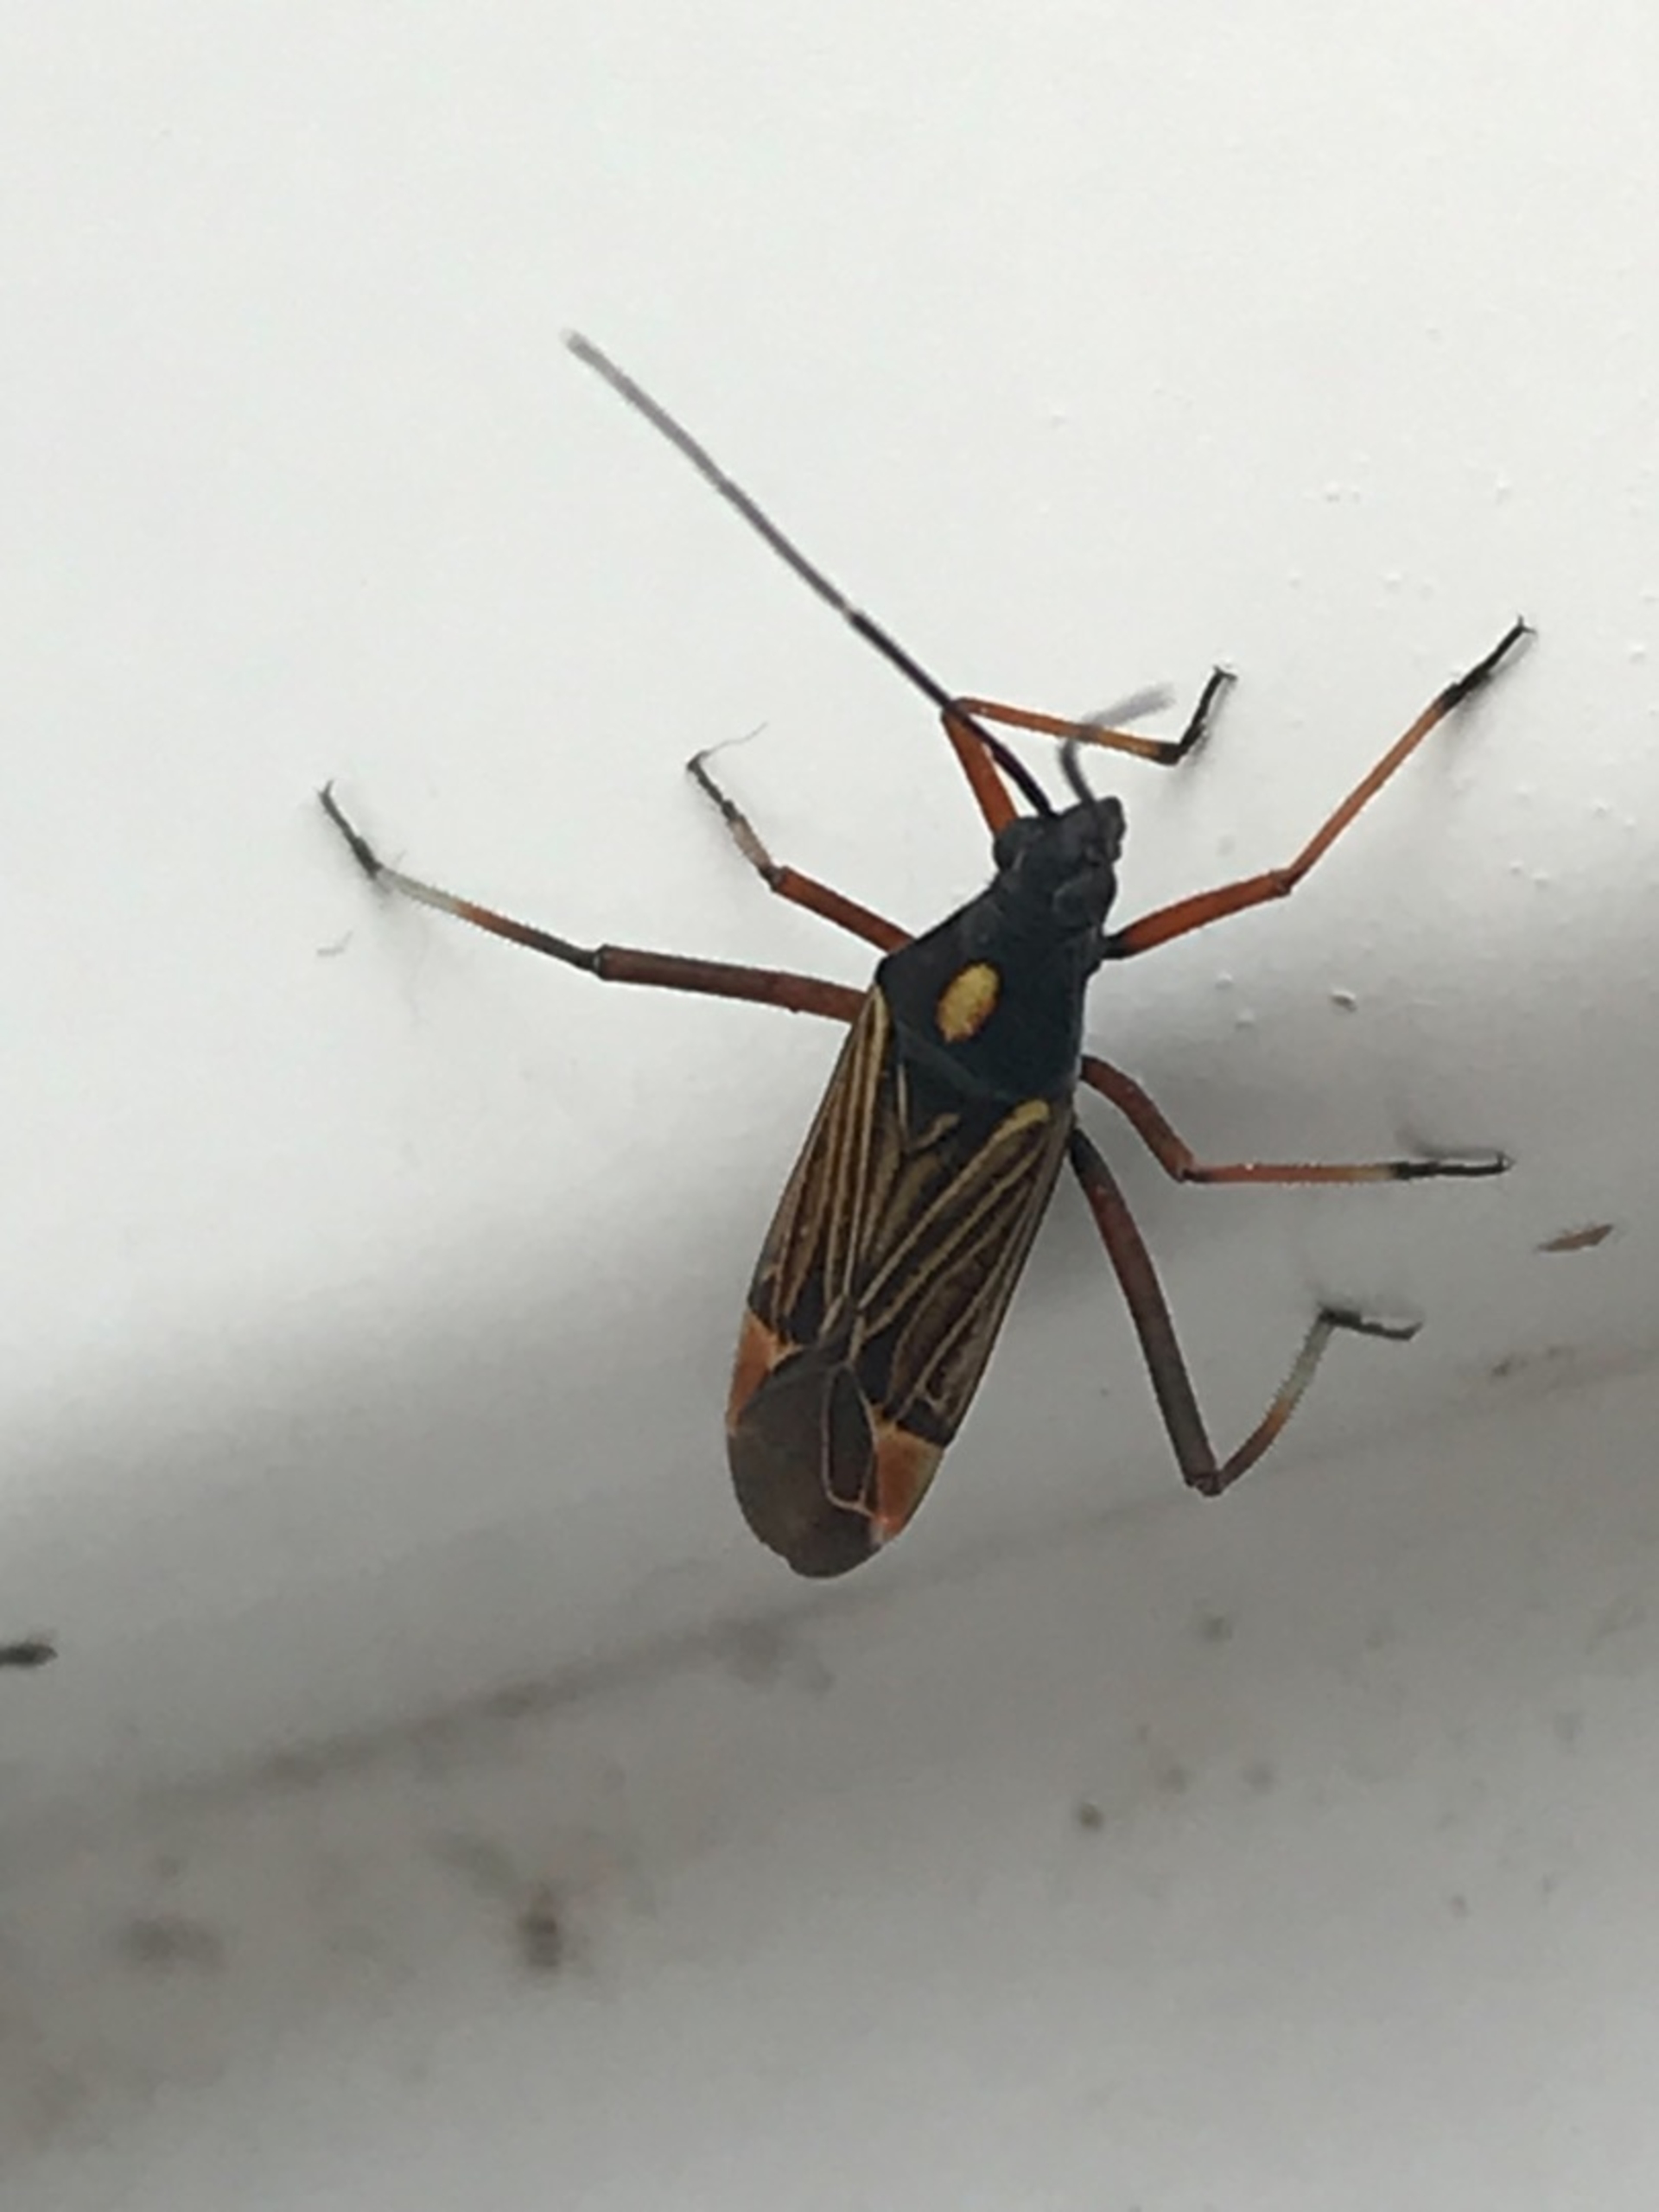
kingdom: Animalia
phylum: Arthropoda
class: Insecta
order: Hemiptera
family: Miridae
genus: Miris
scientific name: Miris striatus
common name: Gulstribet egetæge
